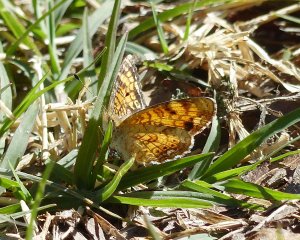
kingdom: Animalia
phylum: Arthropoda
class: Insecta
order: Lepidoptera
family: Nymphalidae
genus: Phyciodes
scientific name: Phyciodes tharos
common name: Pearl Crescent
